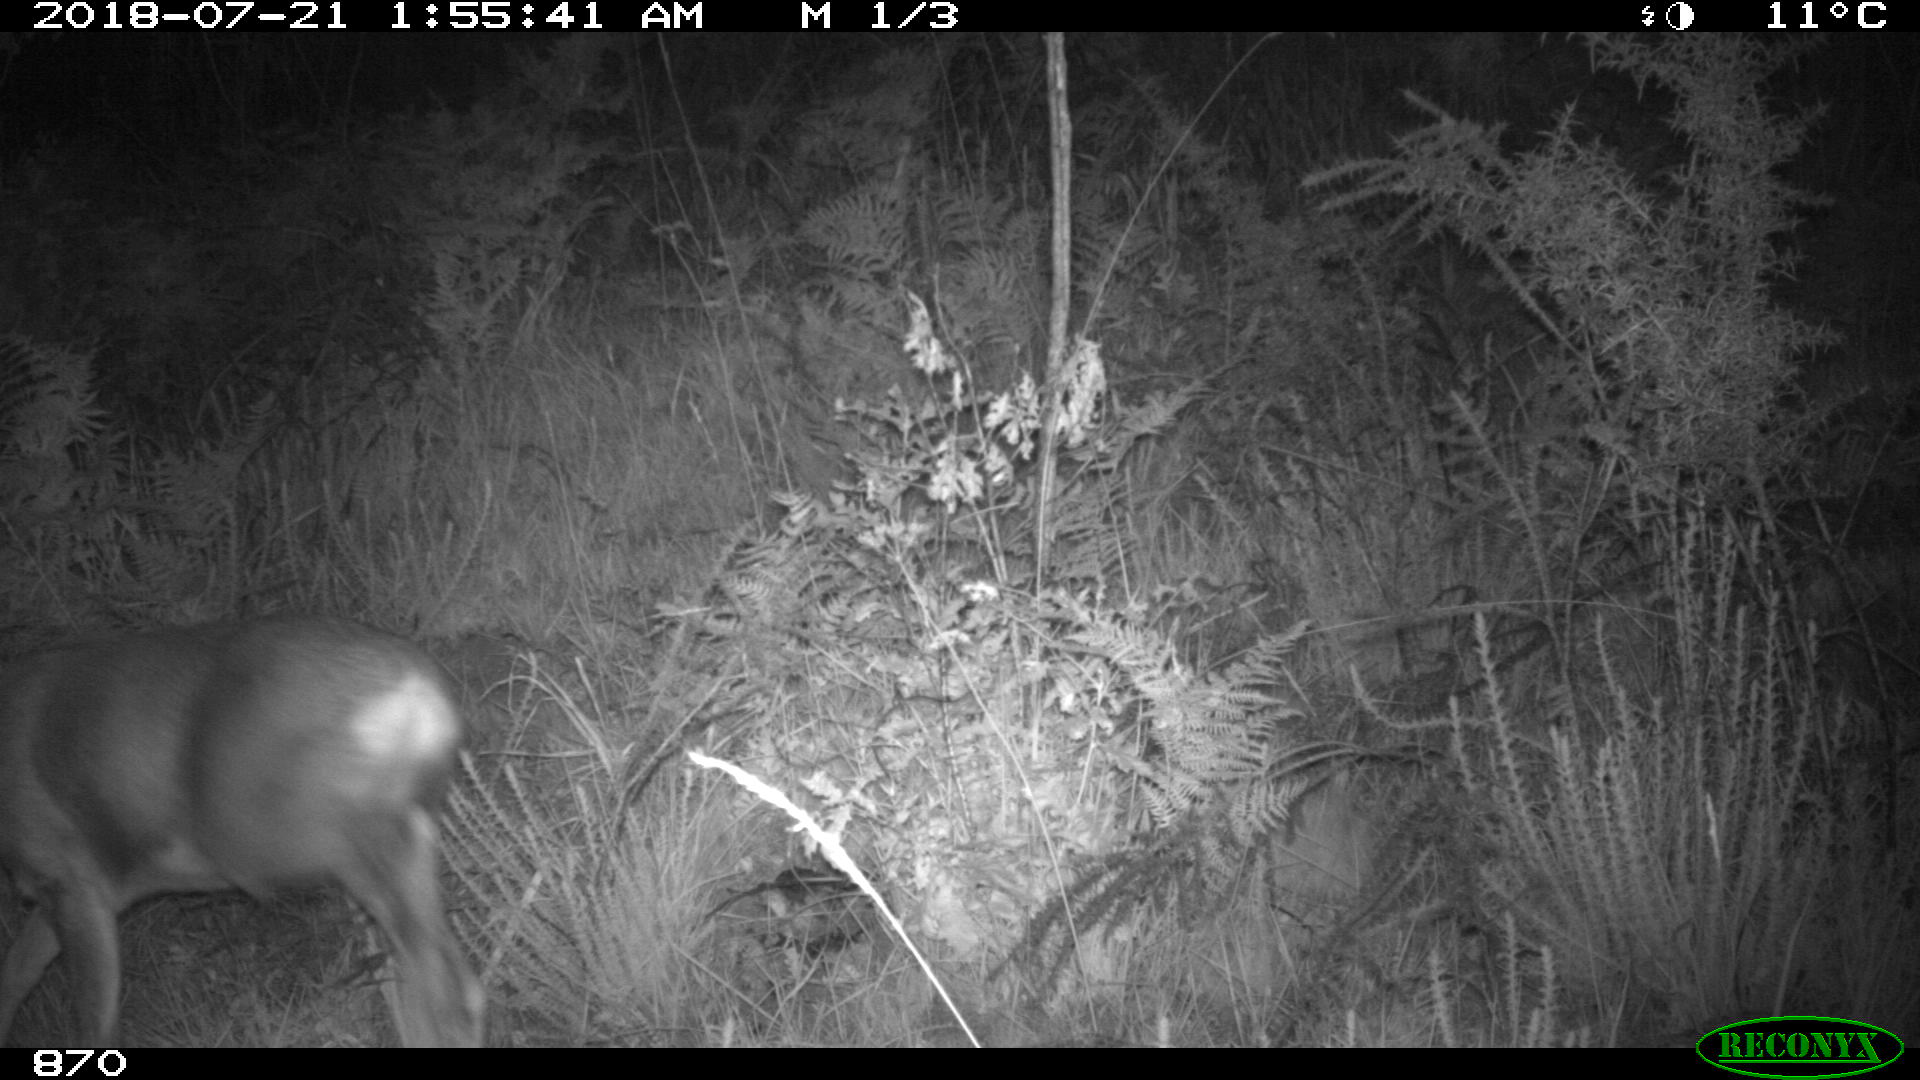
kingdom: Animalia
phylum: Chordata
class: Mammalia
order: Artiodactyla
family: Cervidae
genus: Capreolus
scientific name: Capreolus capreolus
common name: Western roe deer
